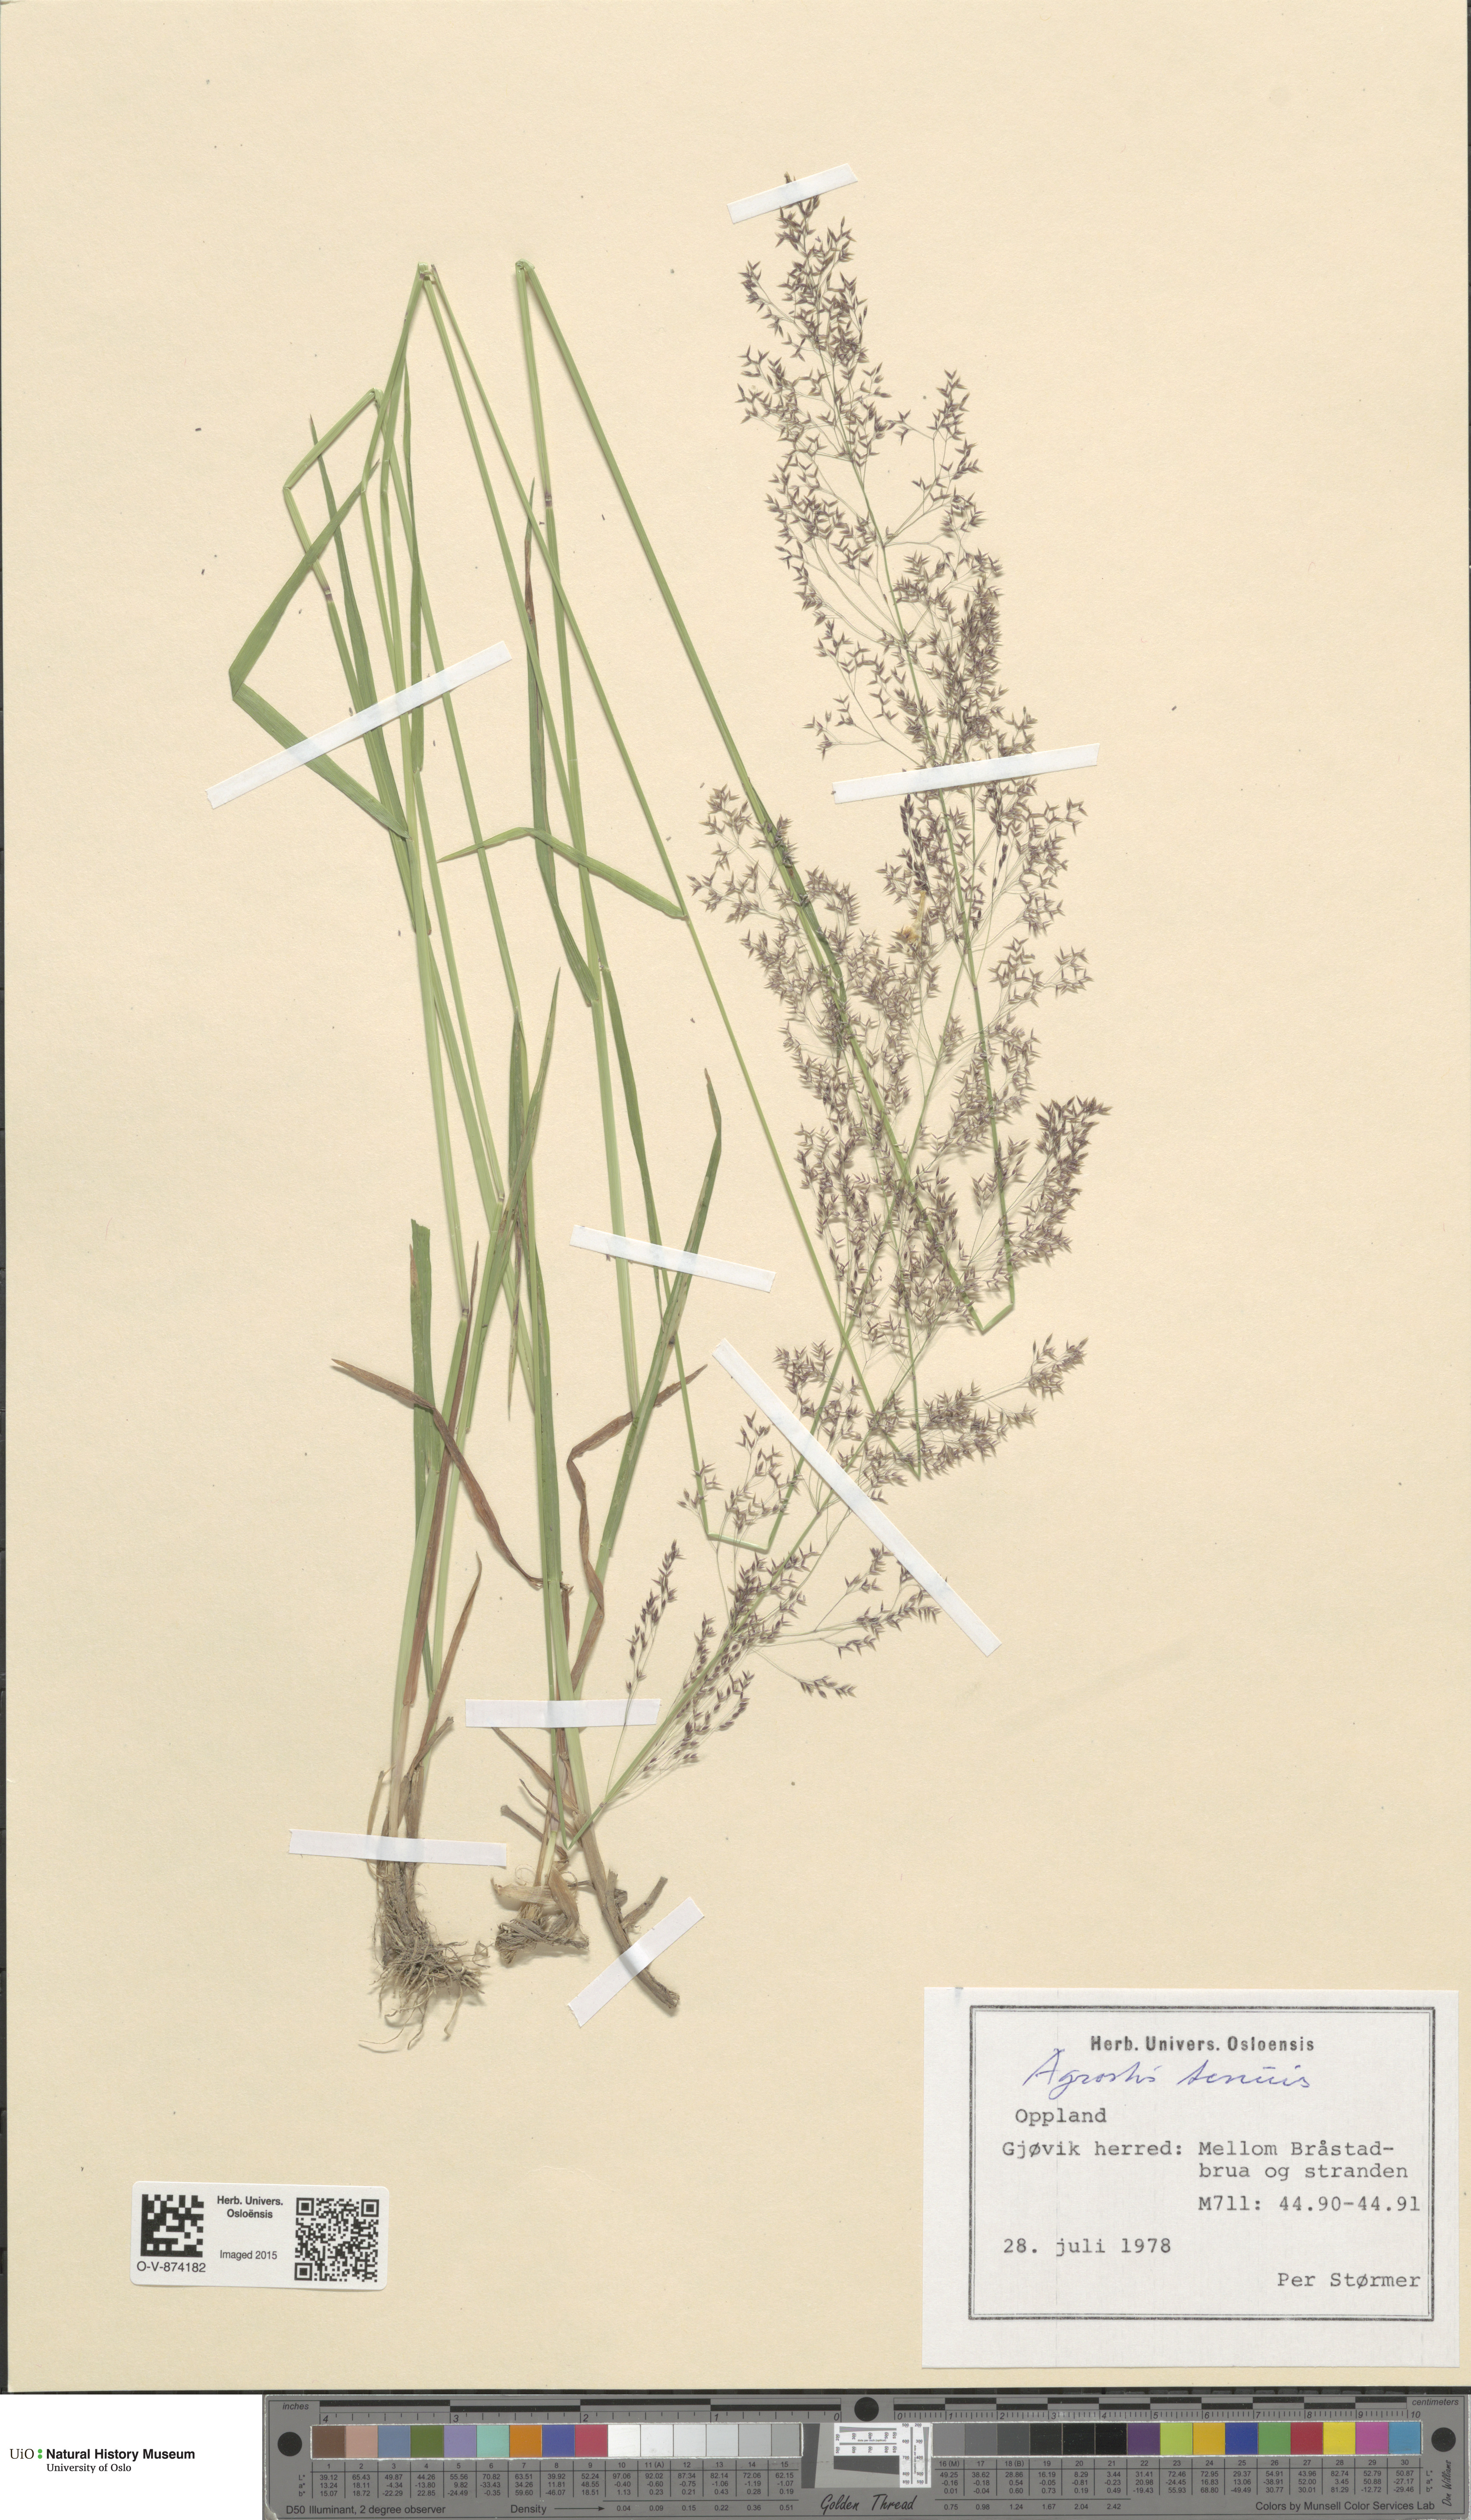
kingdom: Plantae
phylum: Tracheophyta
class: Liliopsida
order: Poales
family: Poaceae
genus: Agrostis
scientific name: Agrostis capillaris
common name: Colonial bentgrass
